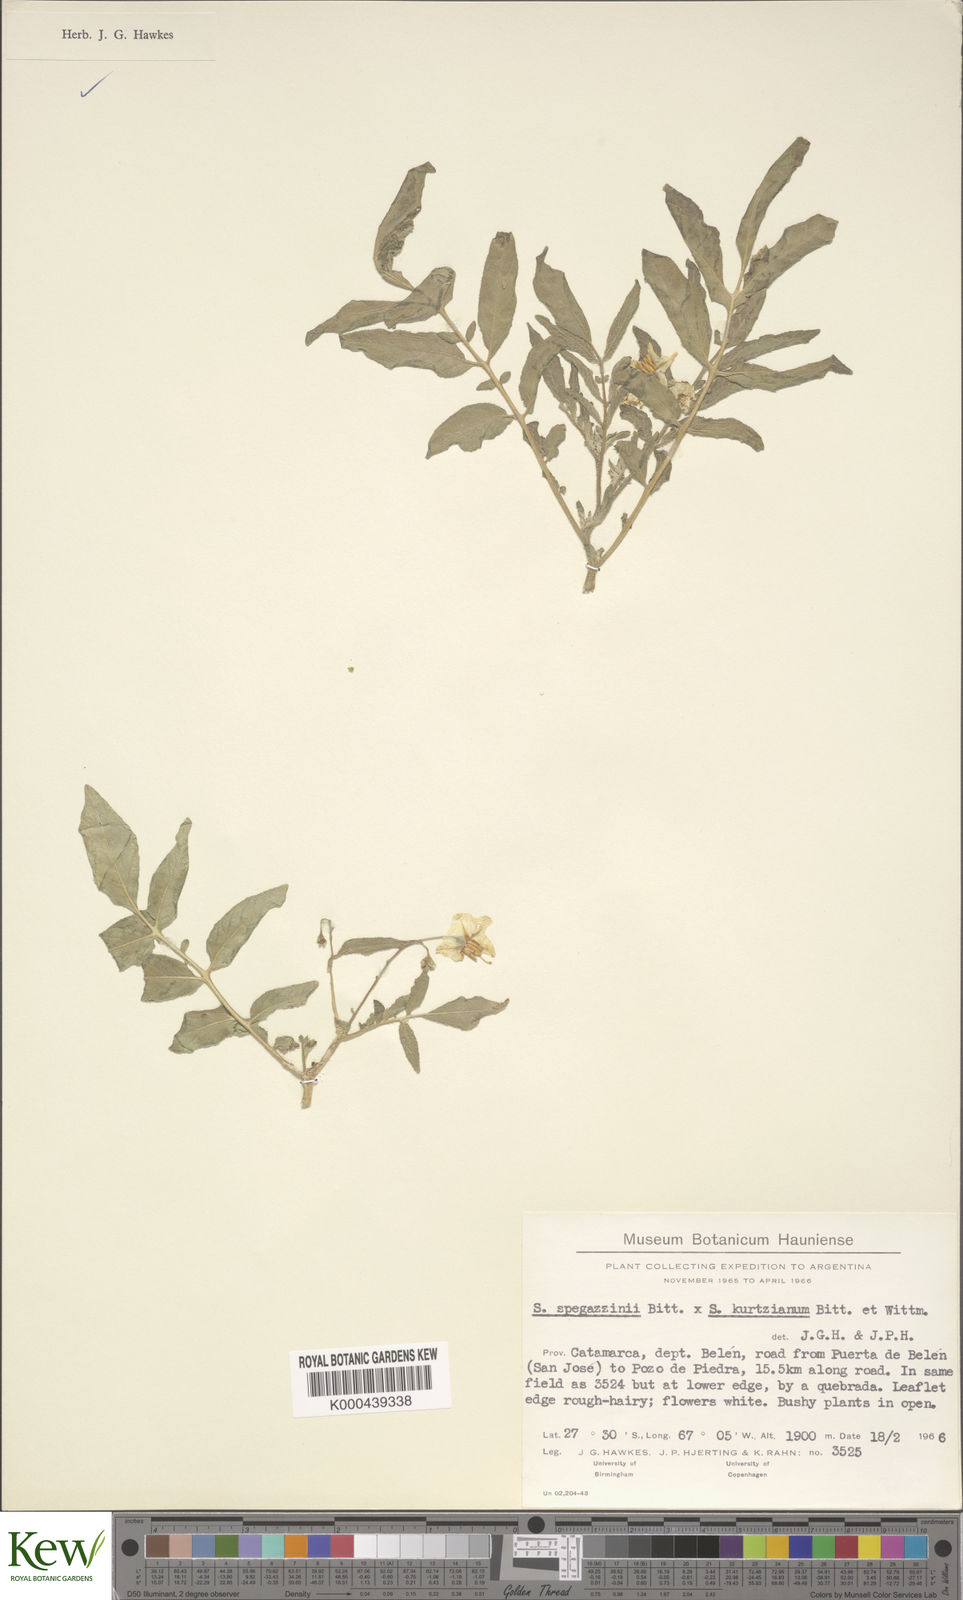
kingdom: Plantae
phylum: Tracheophyta
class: Magnoliopsida
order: Solanales
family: Solanaceae
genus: Solanum
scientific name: Solanum brevicaule
